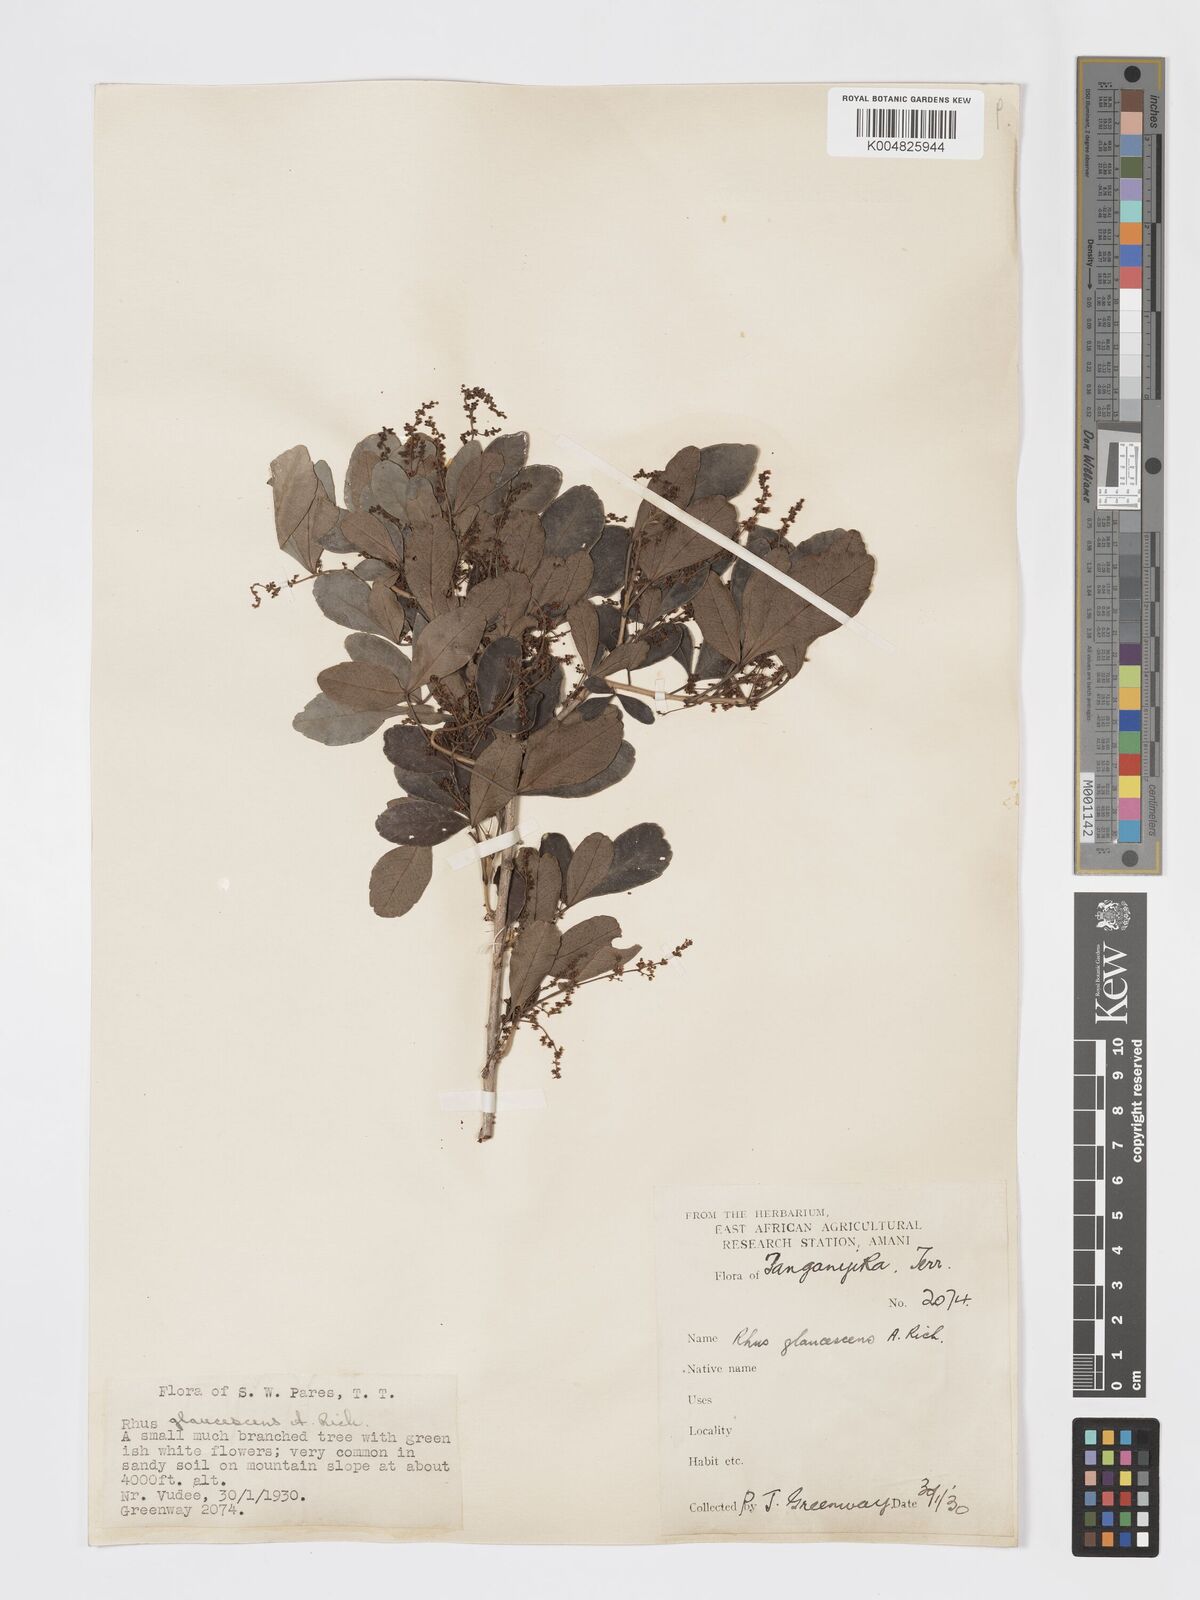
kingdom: Plantae
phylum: Tracheophyta
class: Magnoliopsida
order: Sapindales
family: Anacardiaceae
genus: Searsia
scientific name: Searsia natalensis
